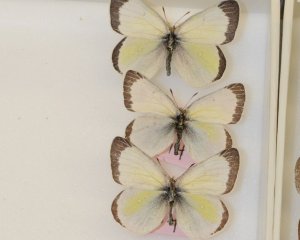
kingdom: Animalia
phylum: Arthropoda
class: Insecta
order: Lepidoptera
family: Pieridae
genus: Colias
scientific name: Colias pelidne
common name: Pelidne Sulphur
